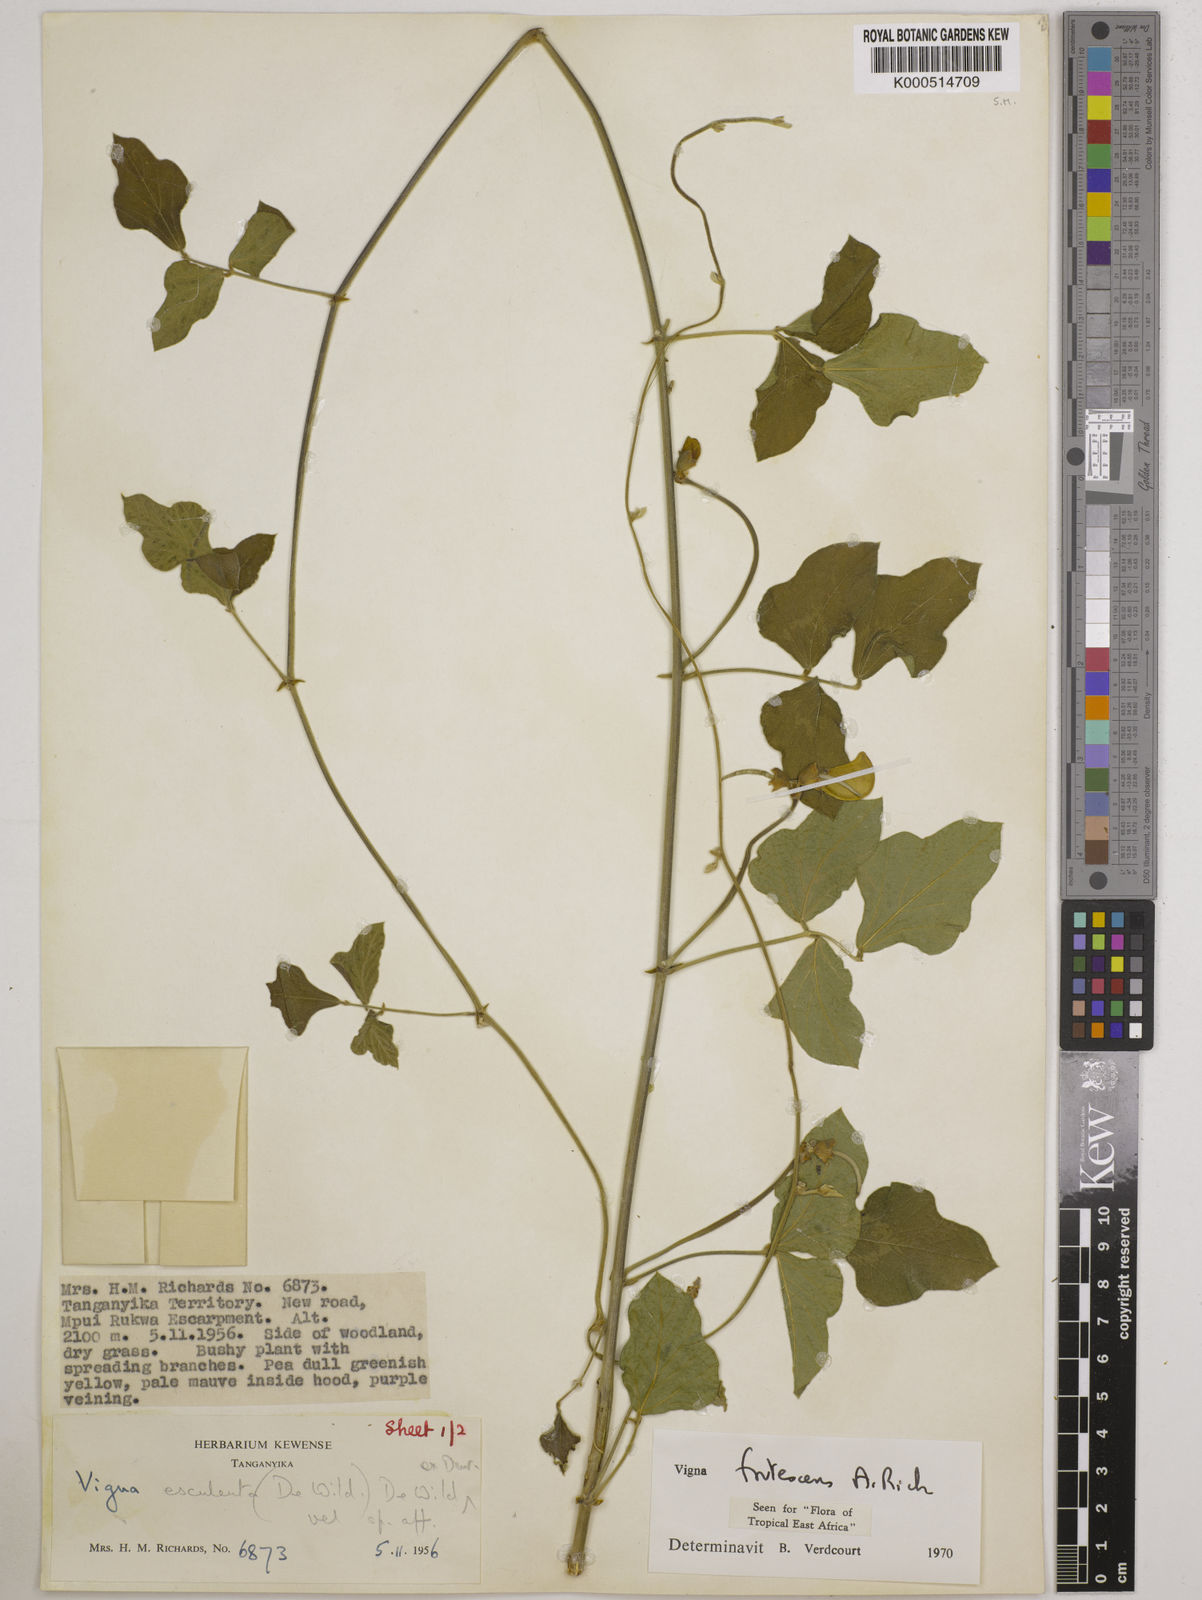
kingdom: Plantae
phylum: Tracheophyta
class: Magnoliopsida
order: Fabales
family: Fabaceae
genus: Vigna
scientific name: Vigna frutescens
